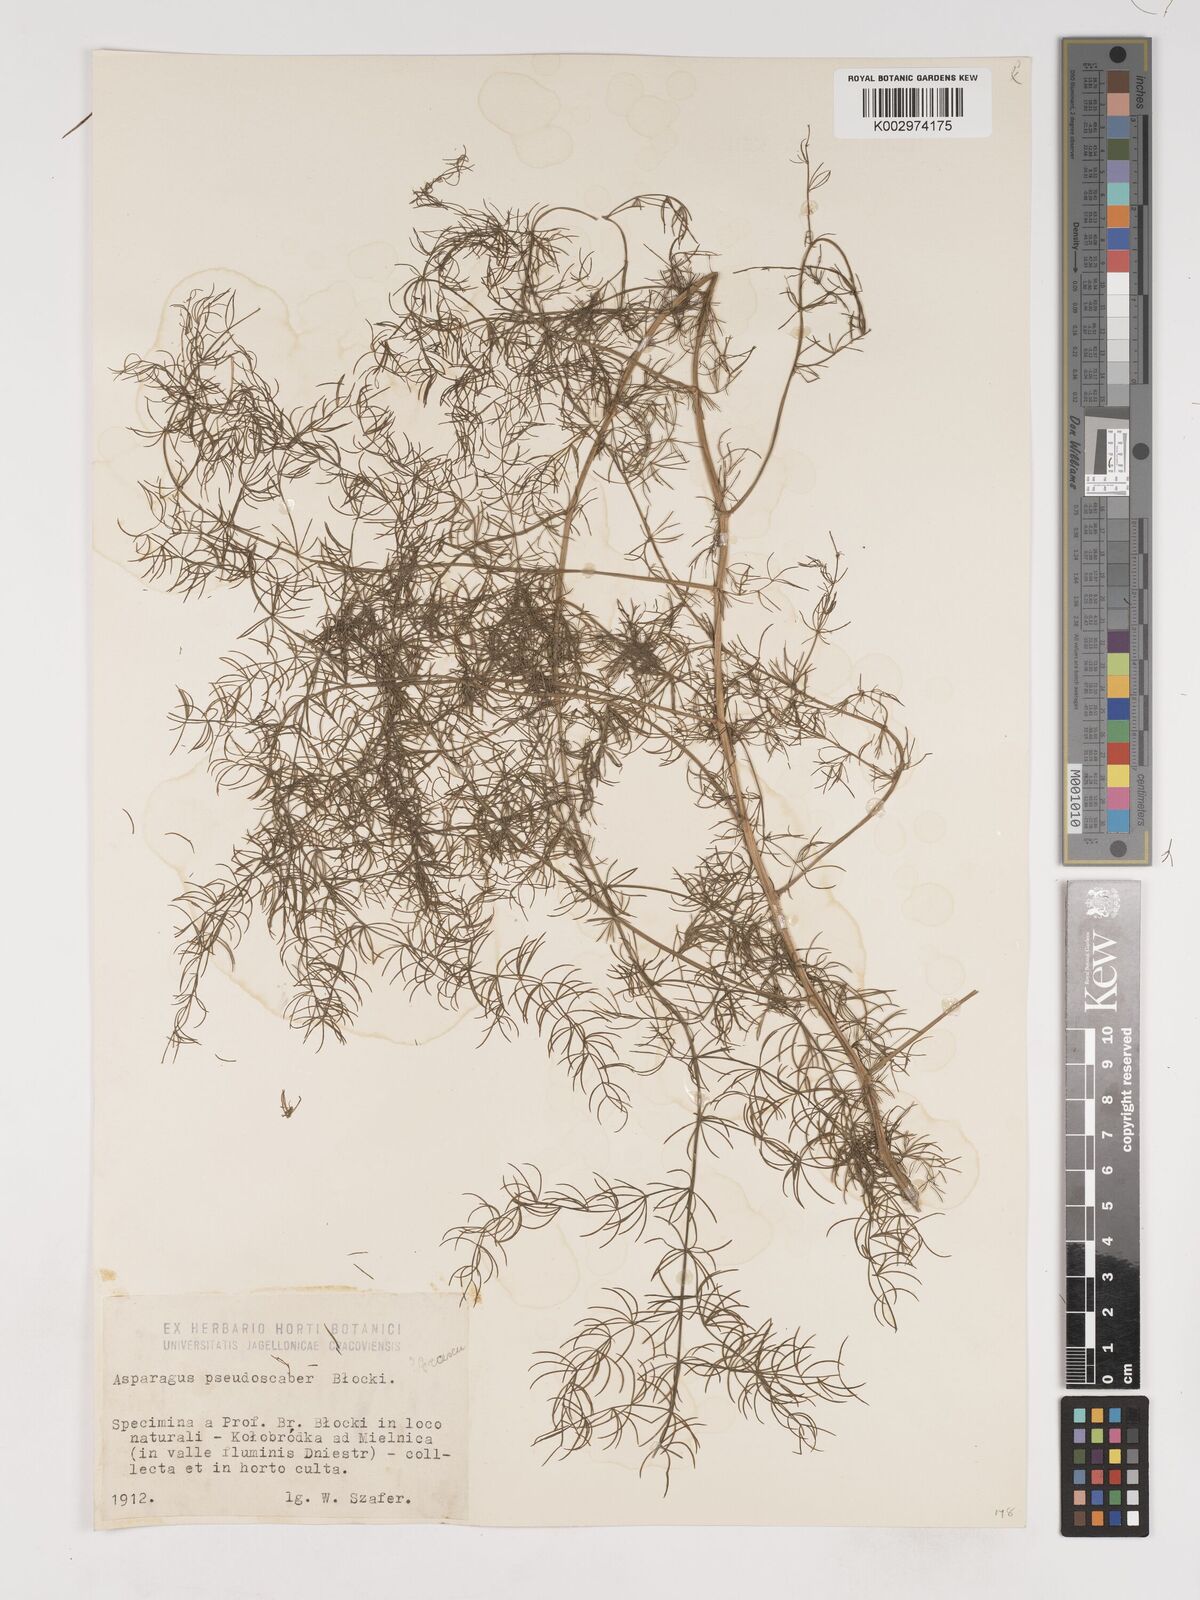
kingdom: Plantae
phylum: Tracheophyta
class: Liliopsida
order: Asparagales
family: Asparagaceae
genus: Asparagus
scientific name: Asparagus pseudoscaber
